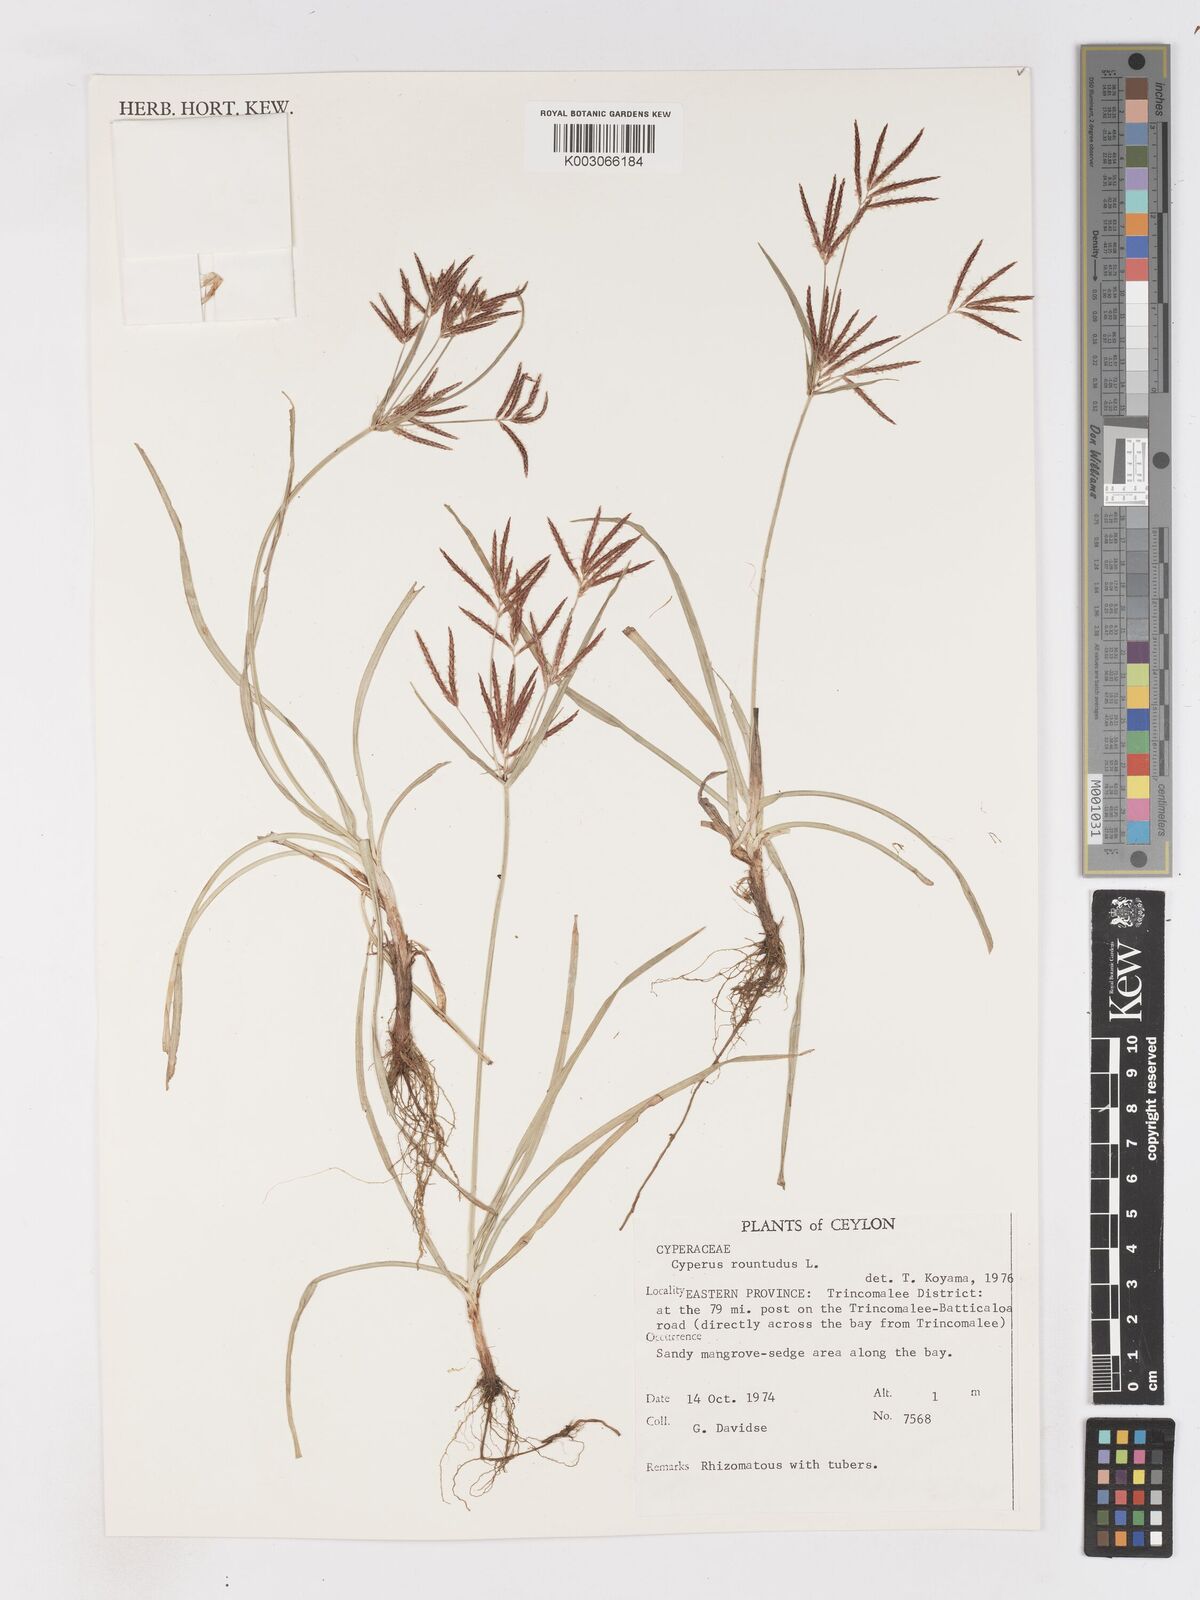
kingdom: Plantae
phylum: Tracheophyta
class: Liliopsida
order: Poales
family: Cyperaceae
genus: Cyperus
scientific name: Cyperus rotundus
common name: Nutgrass
